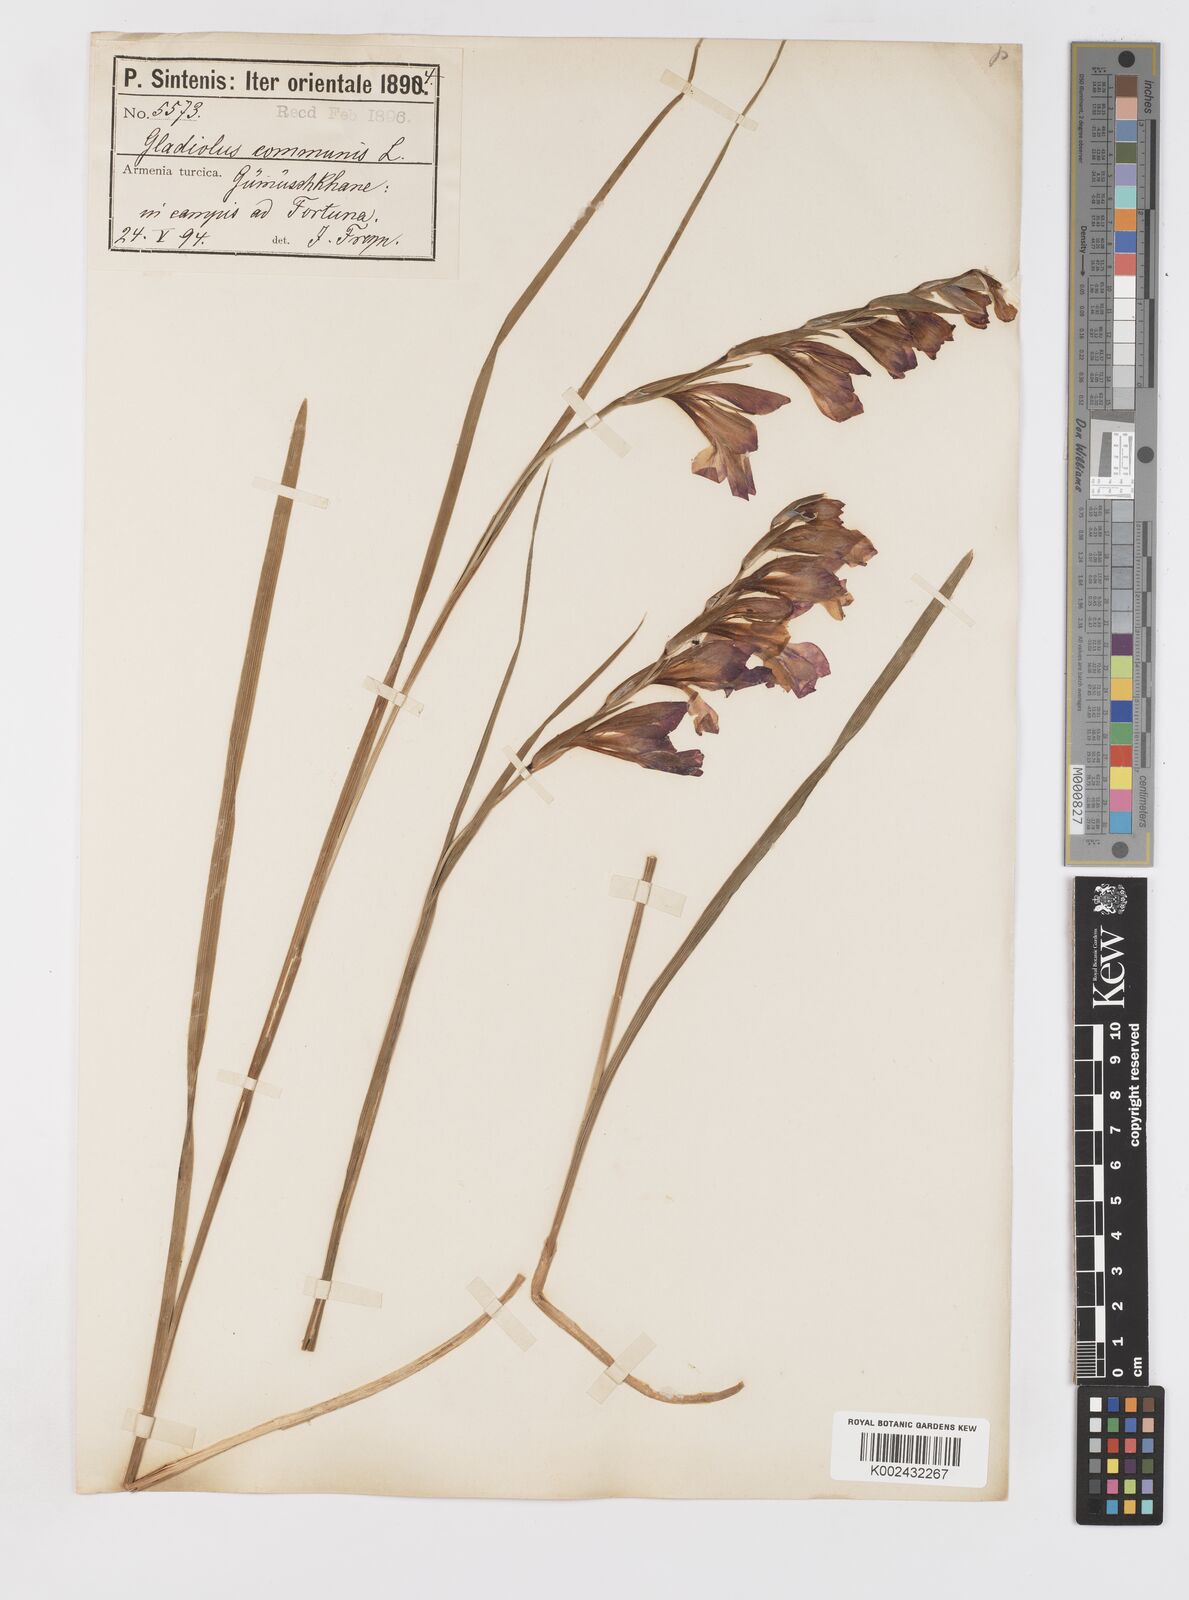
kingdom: Plantae
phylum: Tracheophyta
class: Liliopsida
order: Asparagales
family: Iridaceae
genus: Gladiolus
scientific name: Gladiolus atroviolaceus
